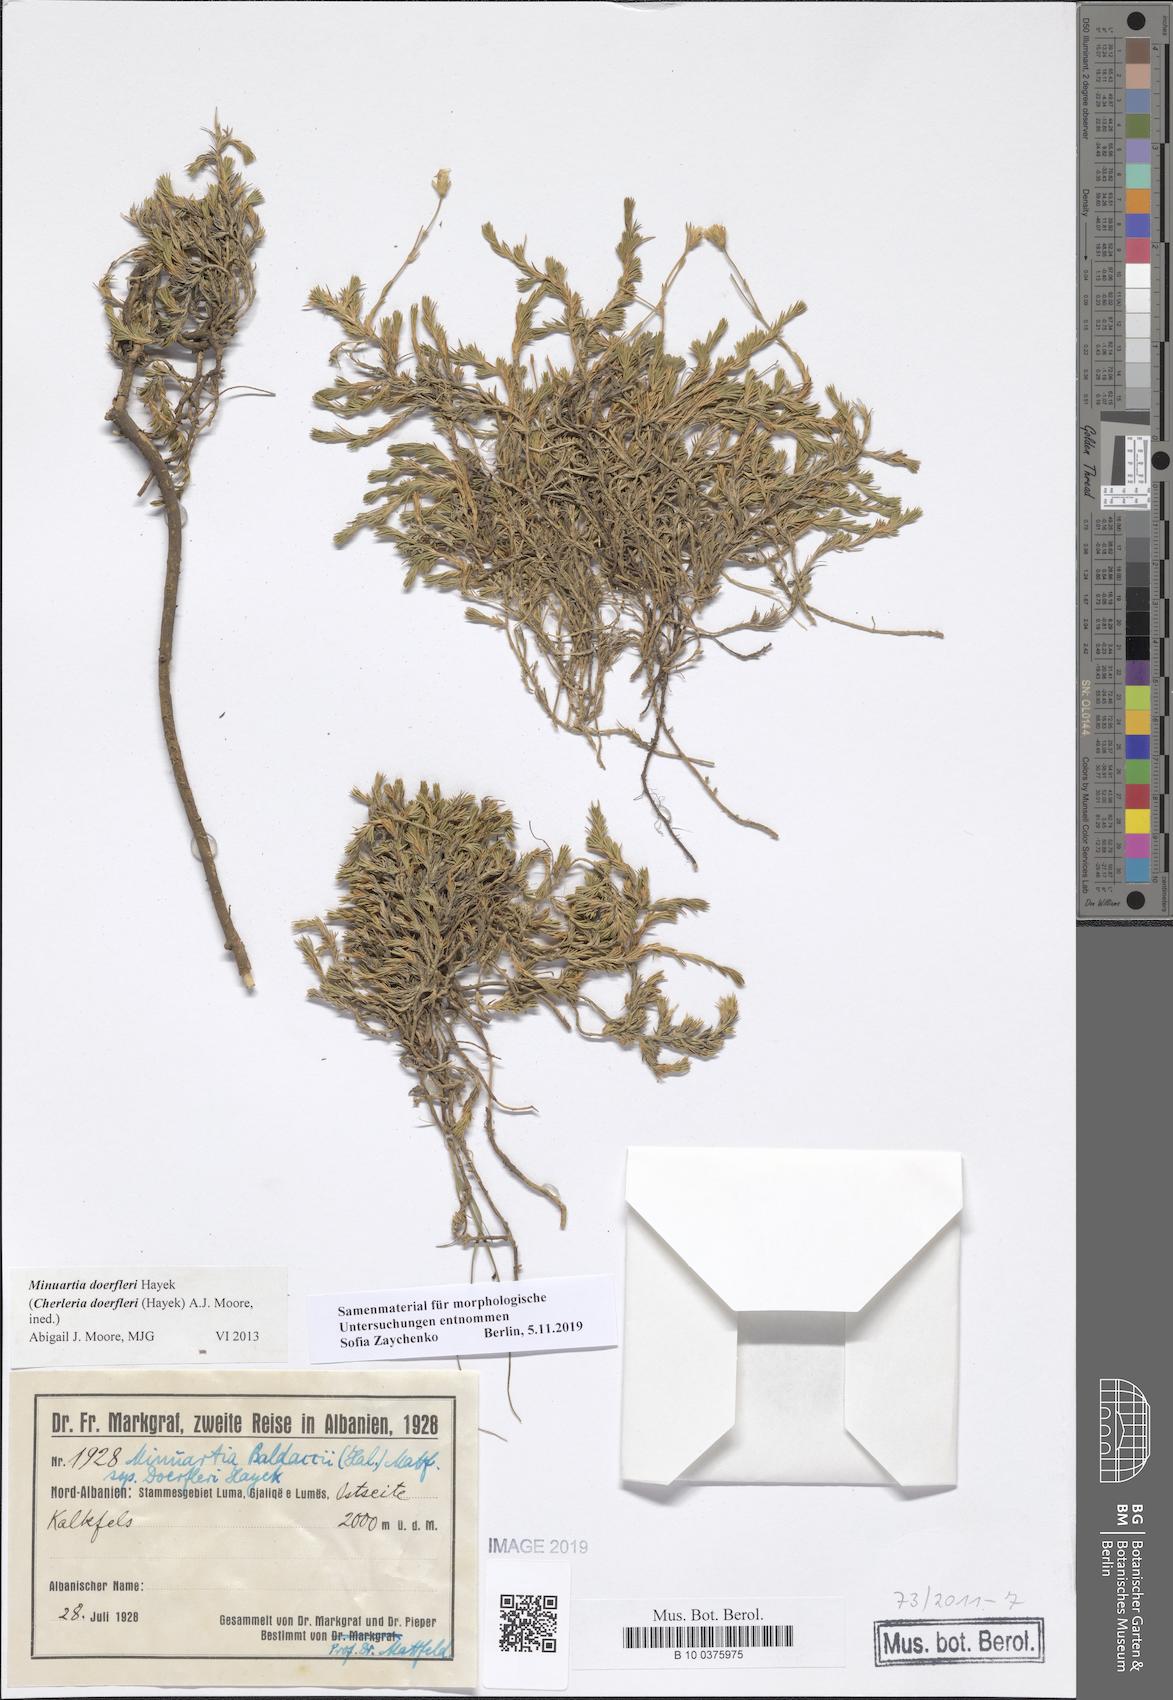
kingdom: Plantae
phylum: Tracheophyta
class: Magnoliopsida
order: Caryophyllales
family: Caryophyllaceae
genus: Cherleria
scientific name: Cherleria doerfleri
